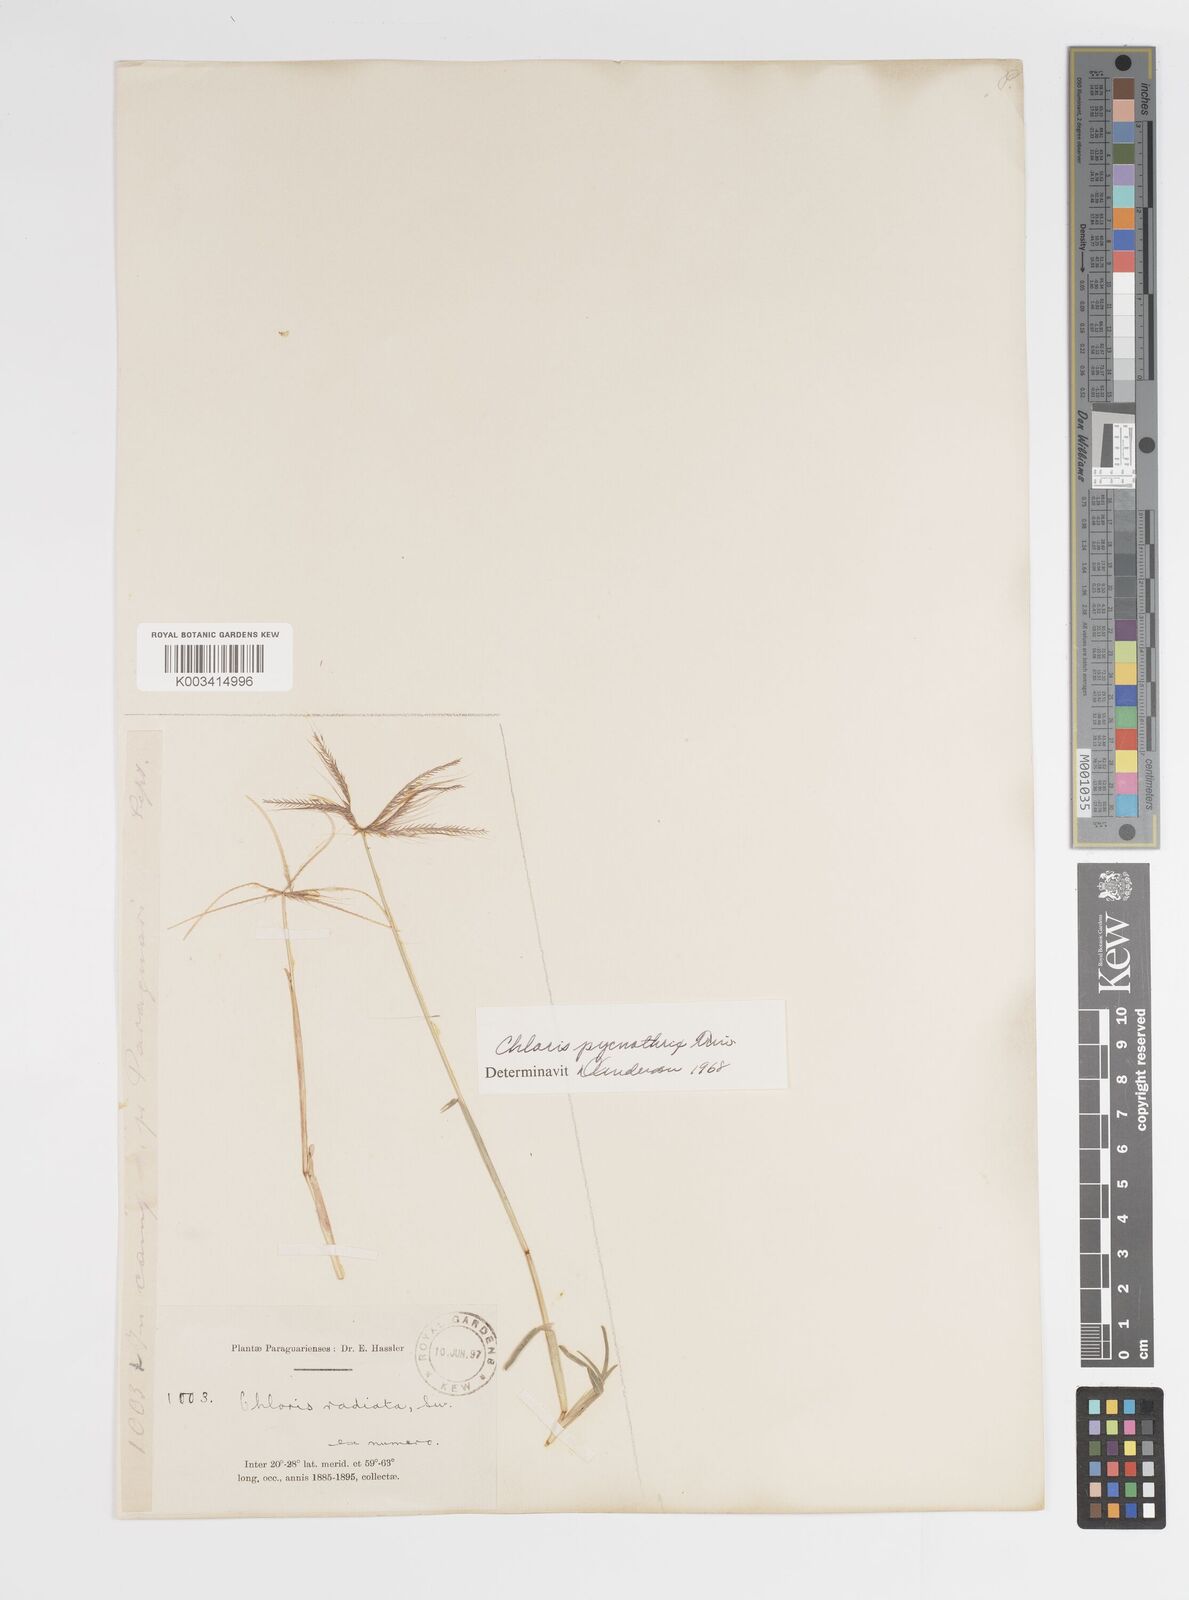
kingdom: Plantae
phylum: Tracheophyta
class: Liliopsida
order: Poales
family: Poaceae
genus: Chloris
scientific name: Chloris pycnothrix
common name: Spiderweb chloris
